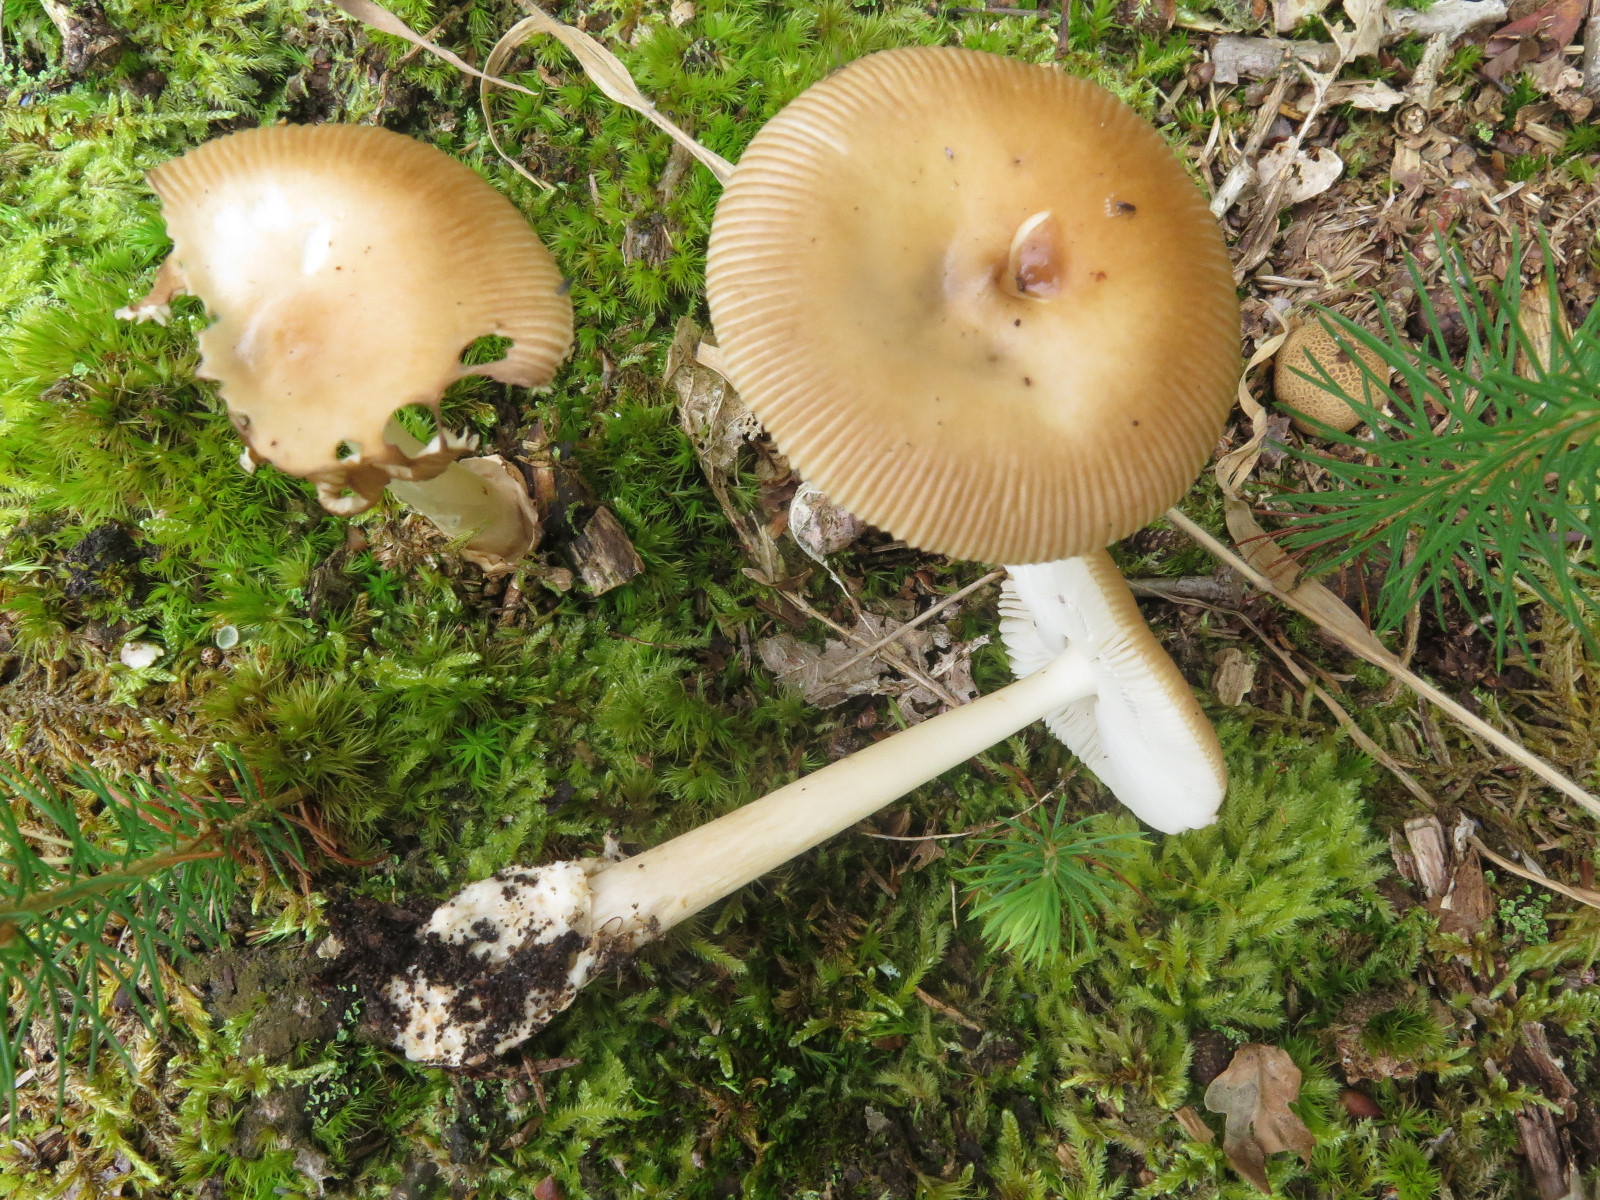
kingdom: Fungi
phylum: Basidiomycota
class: Agaricomycetes
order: Agaricales
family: Amanitaceae
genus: Amanita
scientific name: Amanita fulva
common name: brun kam-fluesvamp
